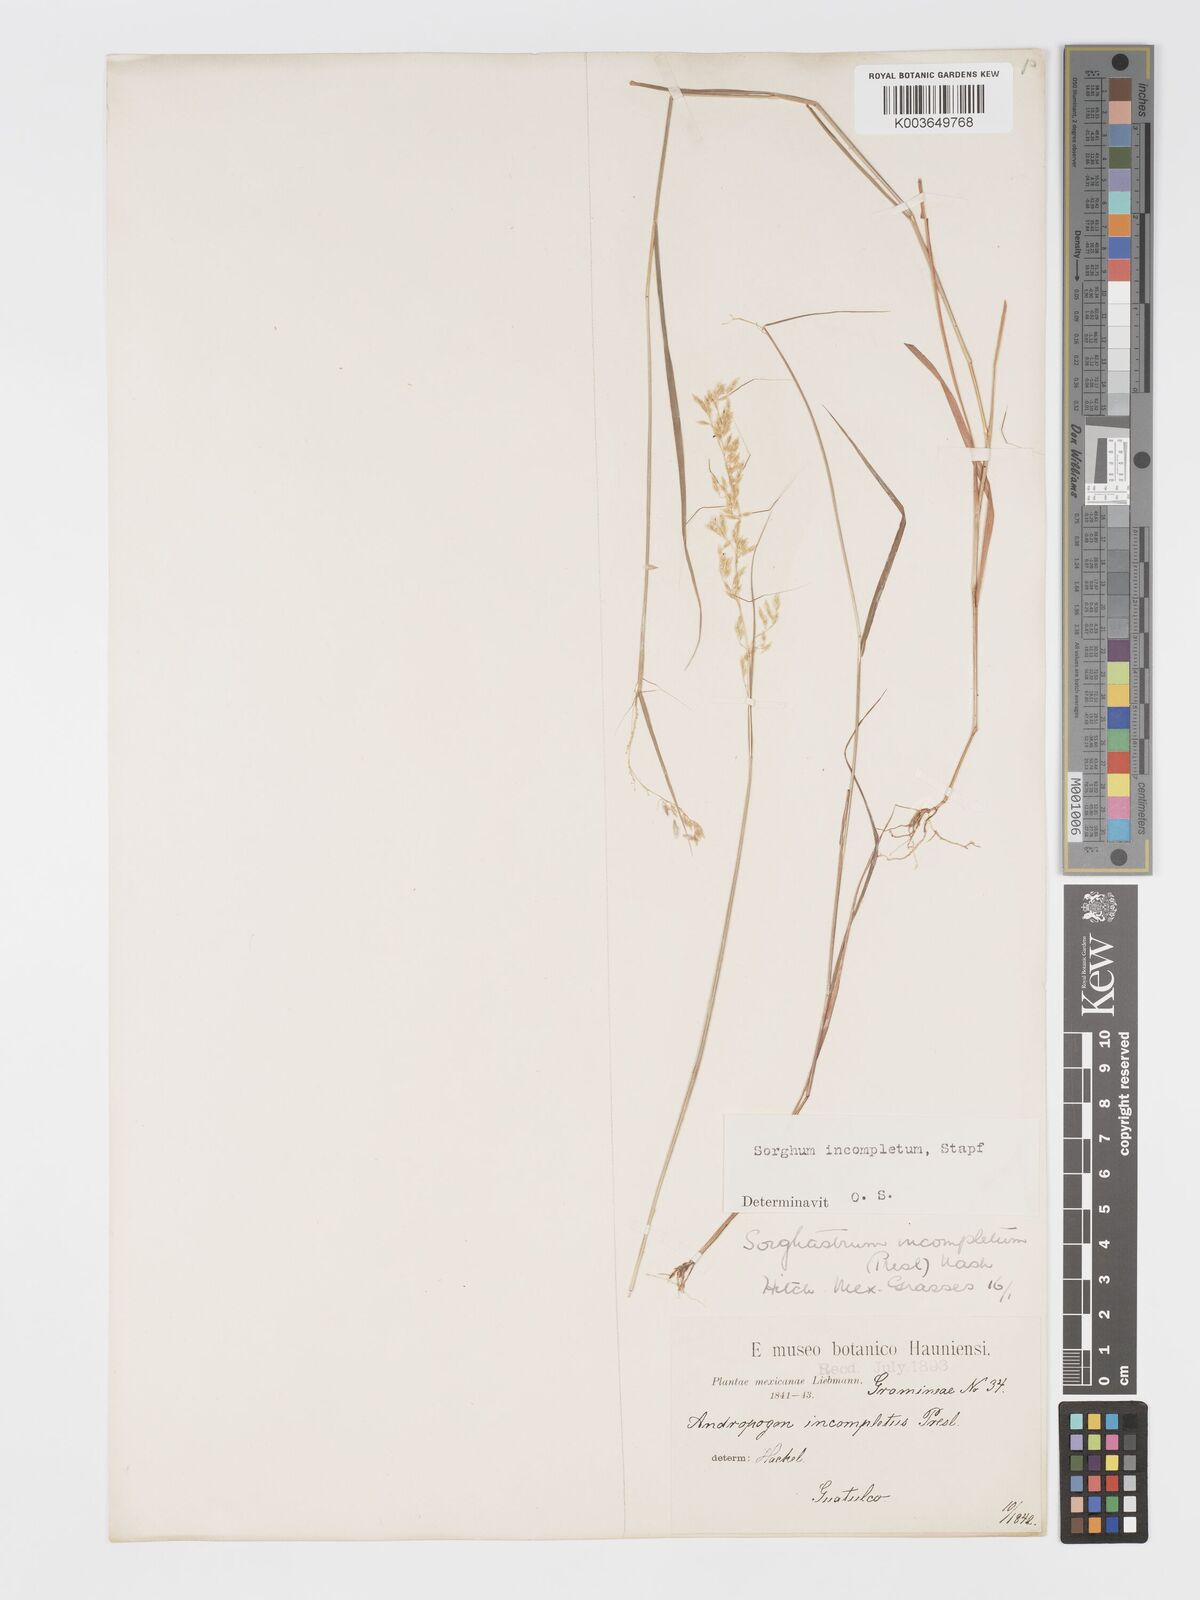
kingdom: Plantae
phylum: Tracheophyta
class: Liliopsida
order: Poales
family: Poaceae
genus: Sorghastrum
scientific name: Sorghastrum incompletum
